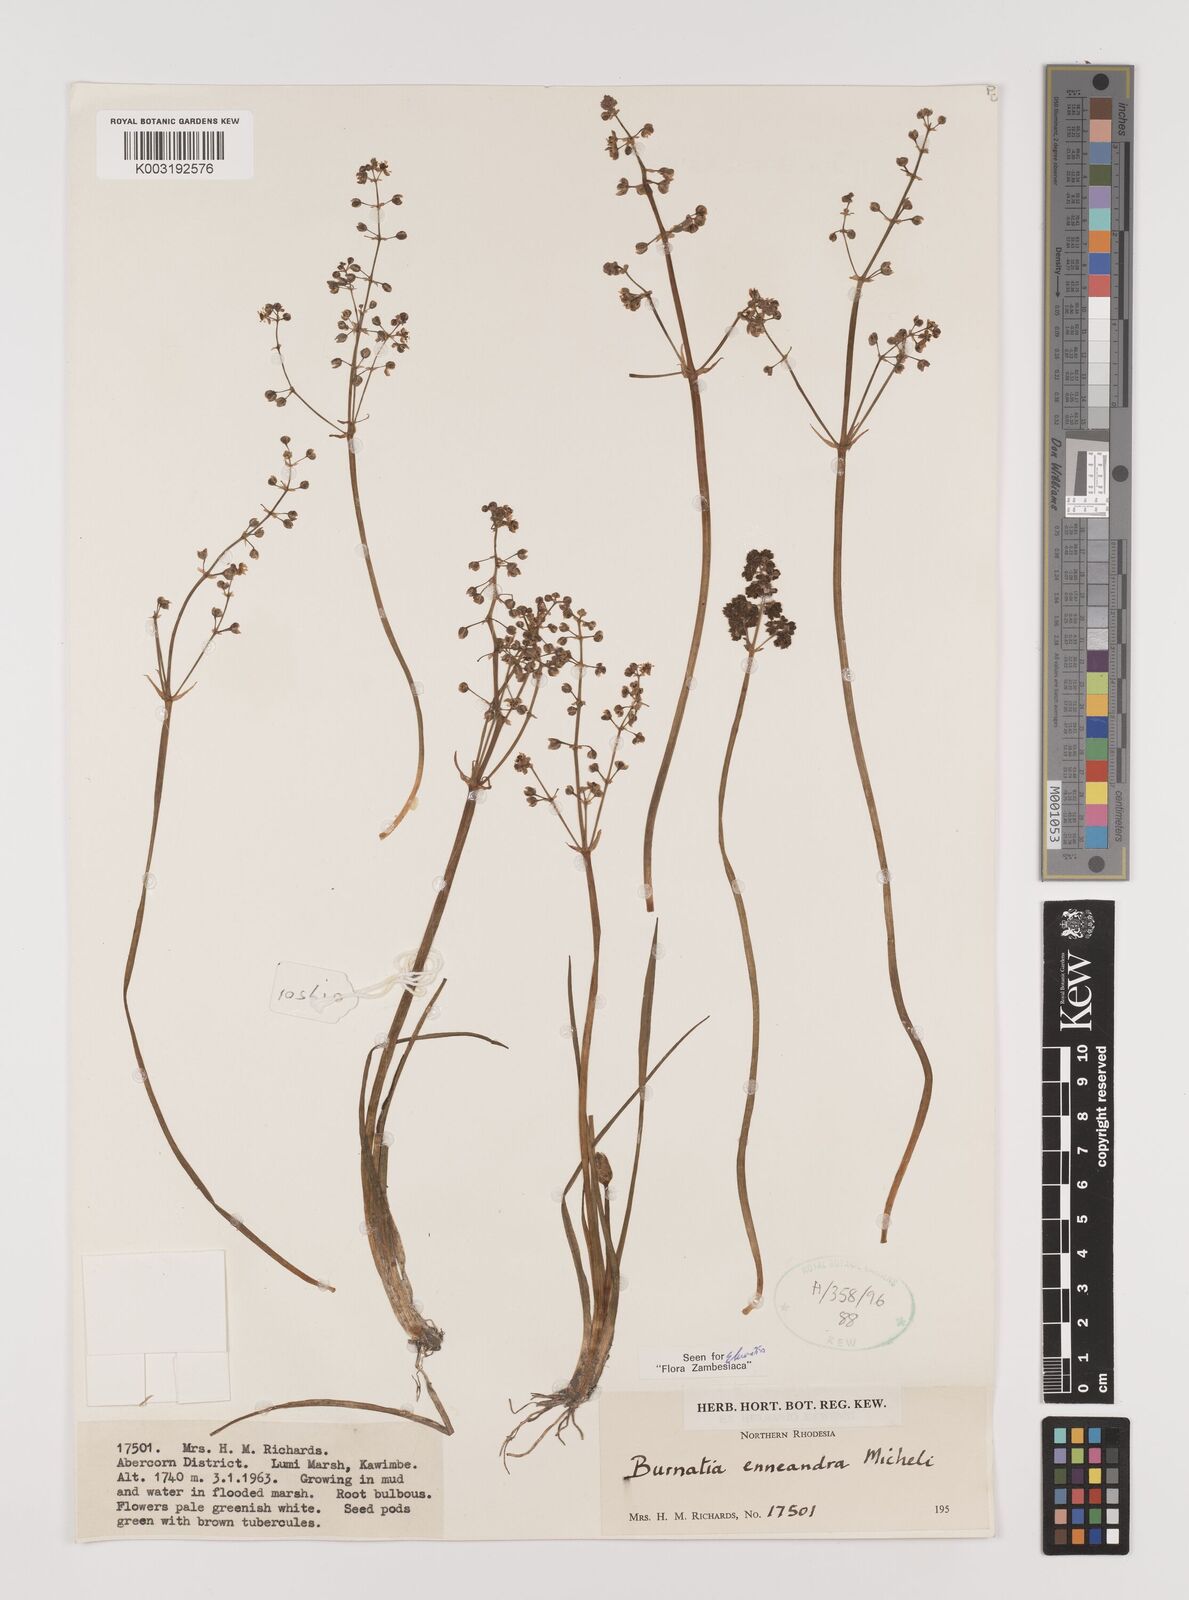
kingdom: Plantae
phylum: Tracheophyta
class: Liliopsida
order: Alismatales
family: Alismataceae
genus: Burnatia
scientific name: Burnatia enneandra
